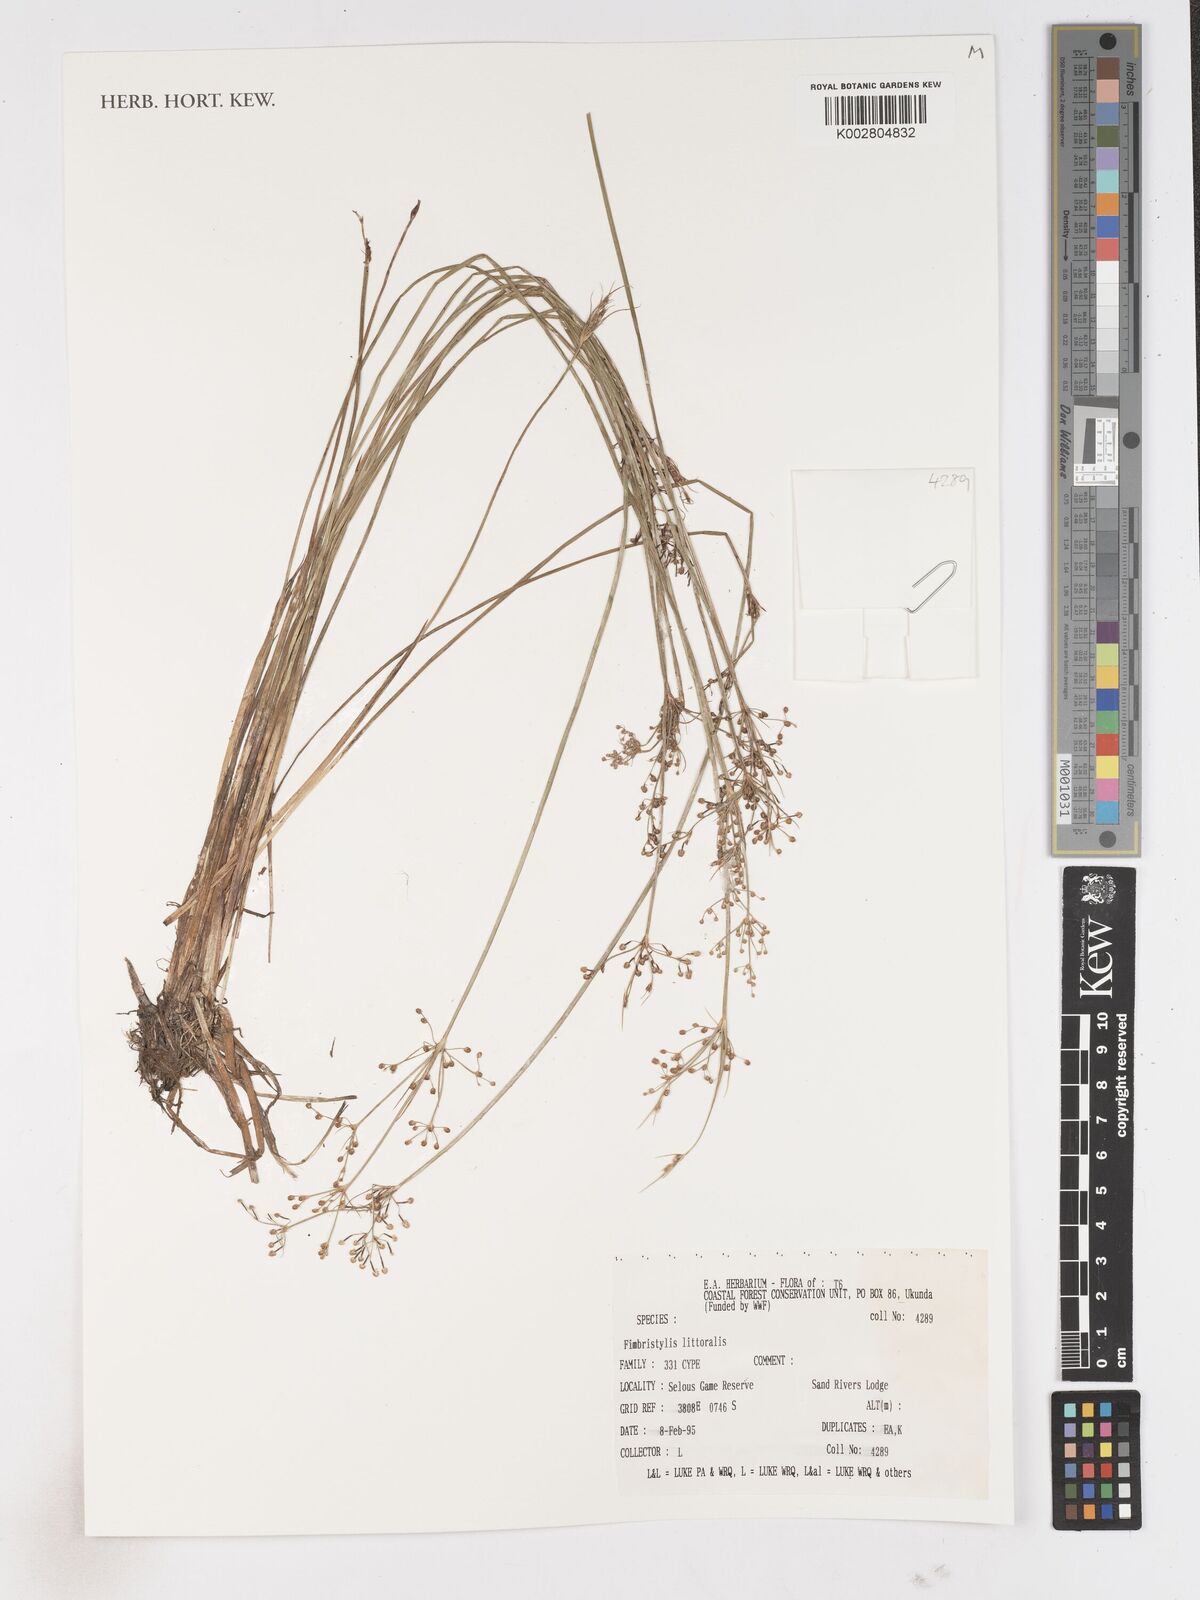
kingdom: Plantae
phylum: Tracheophyta
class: Liliopsida
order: Poales
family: Cyperaceae
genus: Fimbristylis
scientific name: Fimbristylis littoralis
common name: Fimbry
